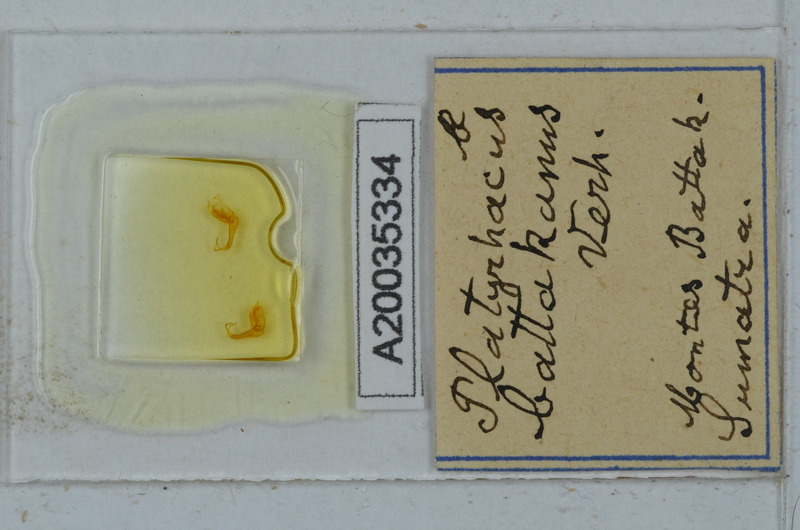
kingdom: Animalia
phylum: Arthropoda
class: Diplopoda
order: Polydesmida
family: Platyrhacidae
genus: Arbelorhacus
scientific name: Arbelorhacus baramanus
